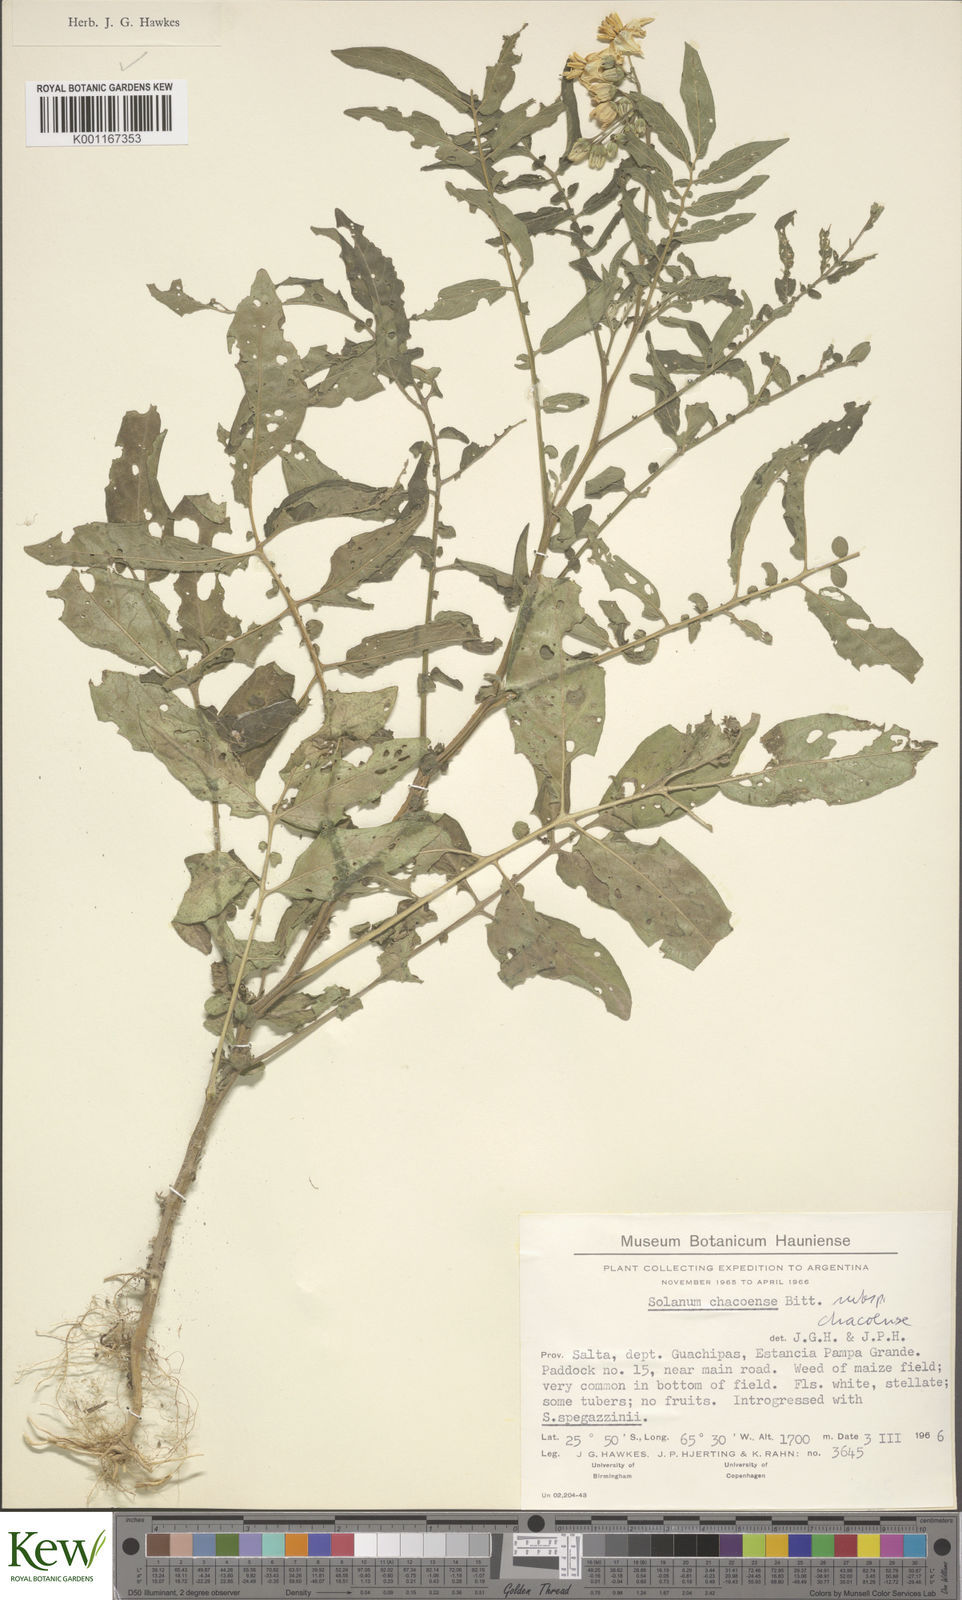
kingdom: Plantae
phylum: Tracheophyta
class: Magnoliopsida
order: Solanales
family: Solanaceae
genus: Solanum
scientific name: Solanum chacoense
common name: Chaco potato
